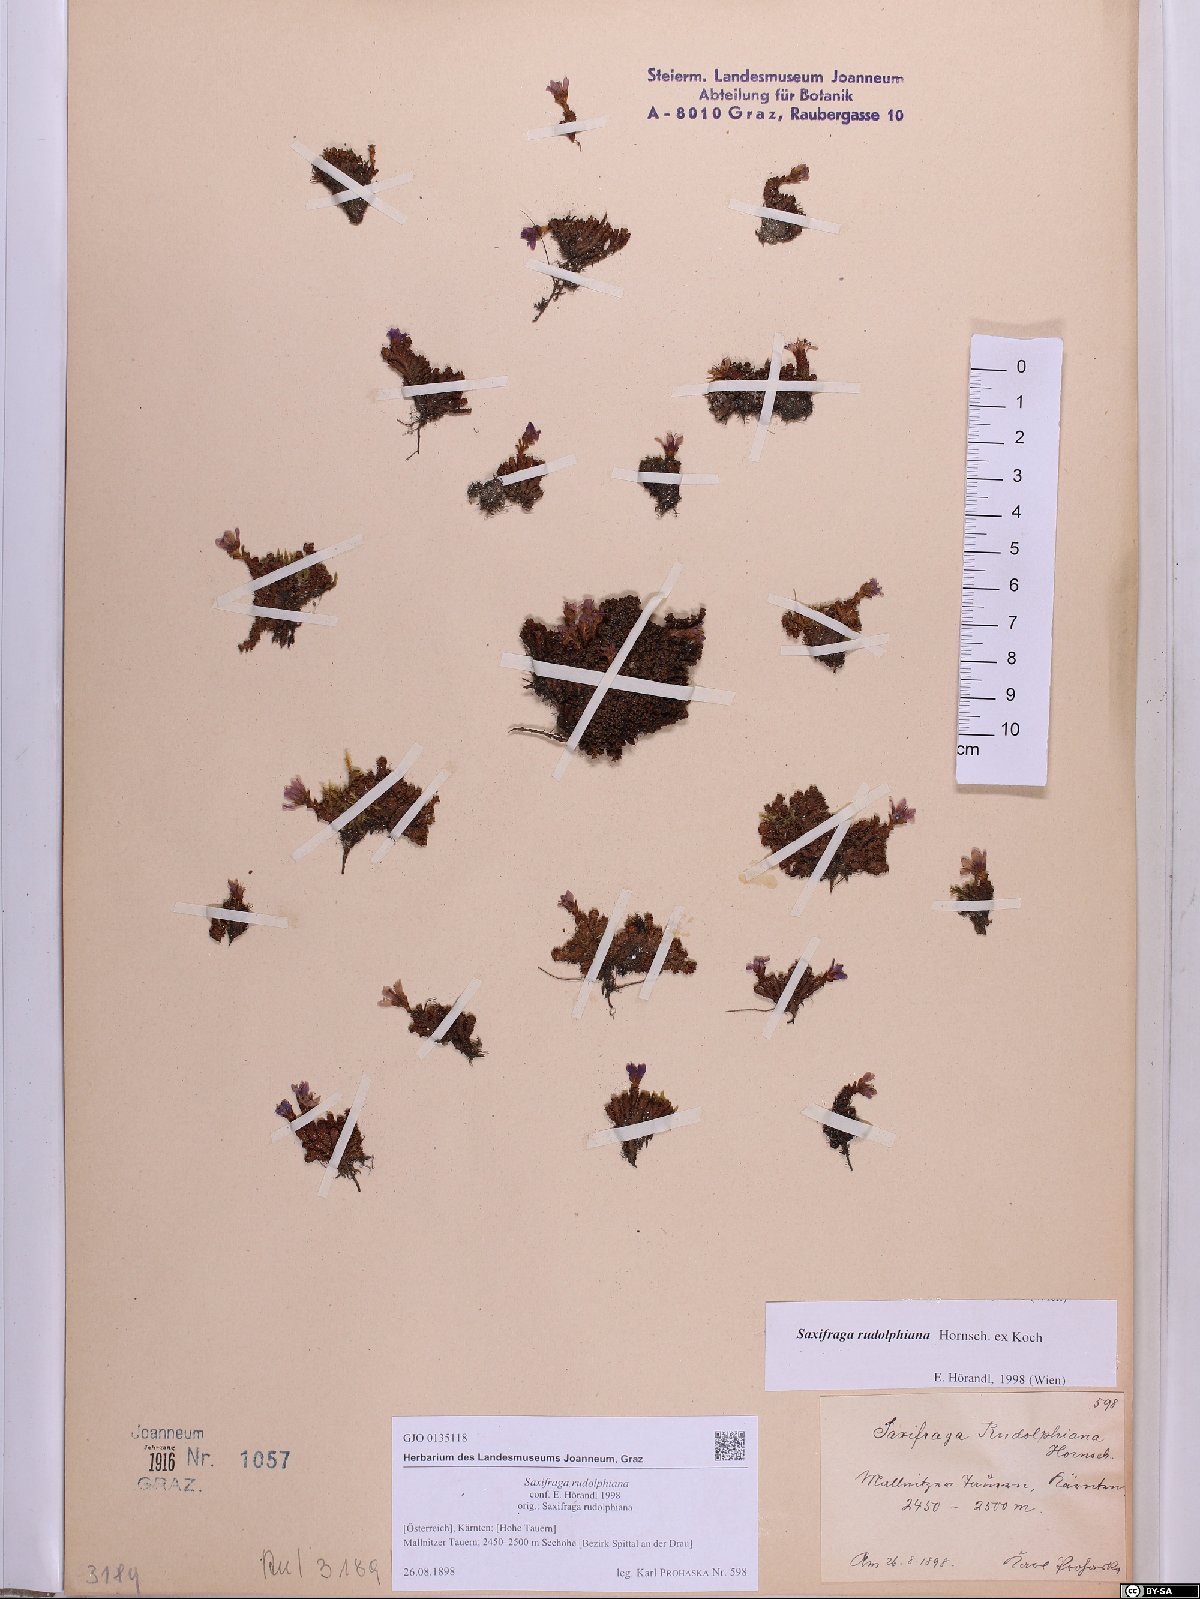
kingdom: Plantae
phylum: Tracheophyta
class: Magnoliopsida
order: Saxifragales
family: Saxifragaceae
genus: Saxifraga
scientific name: Saxifraga oppositifolia
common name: Purple saxifrage
